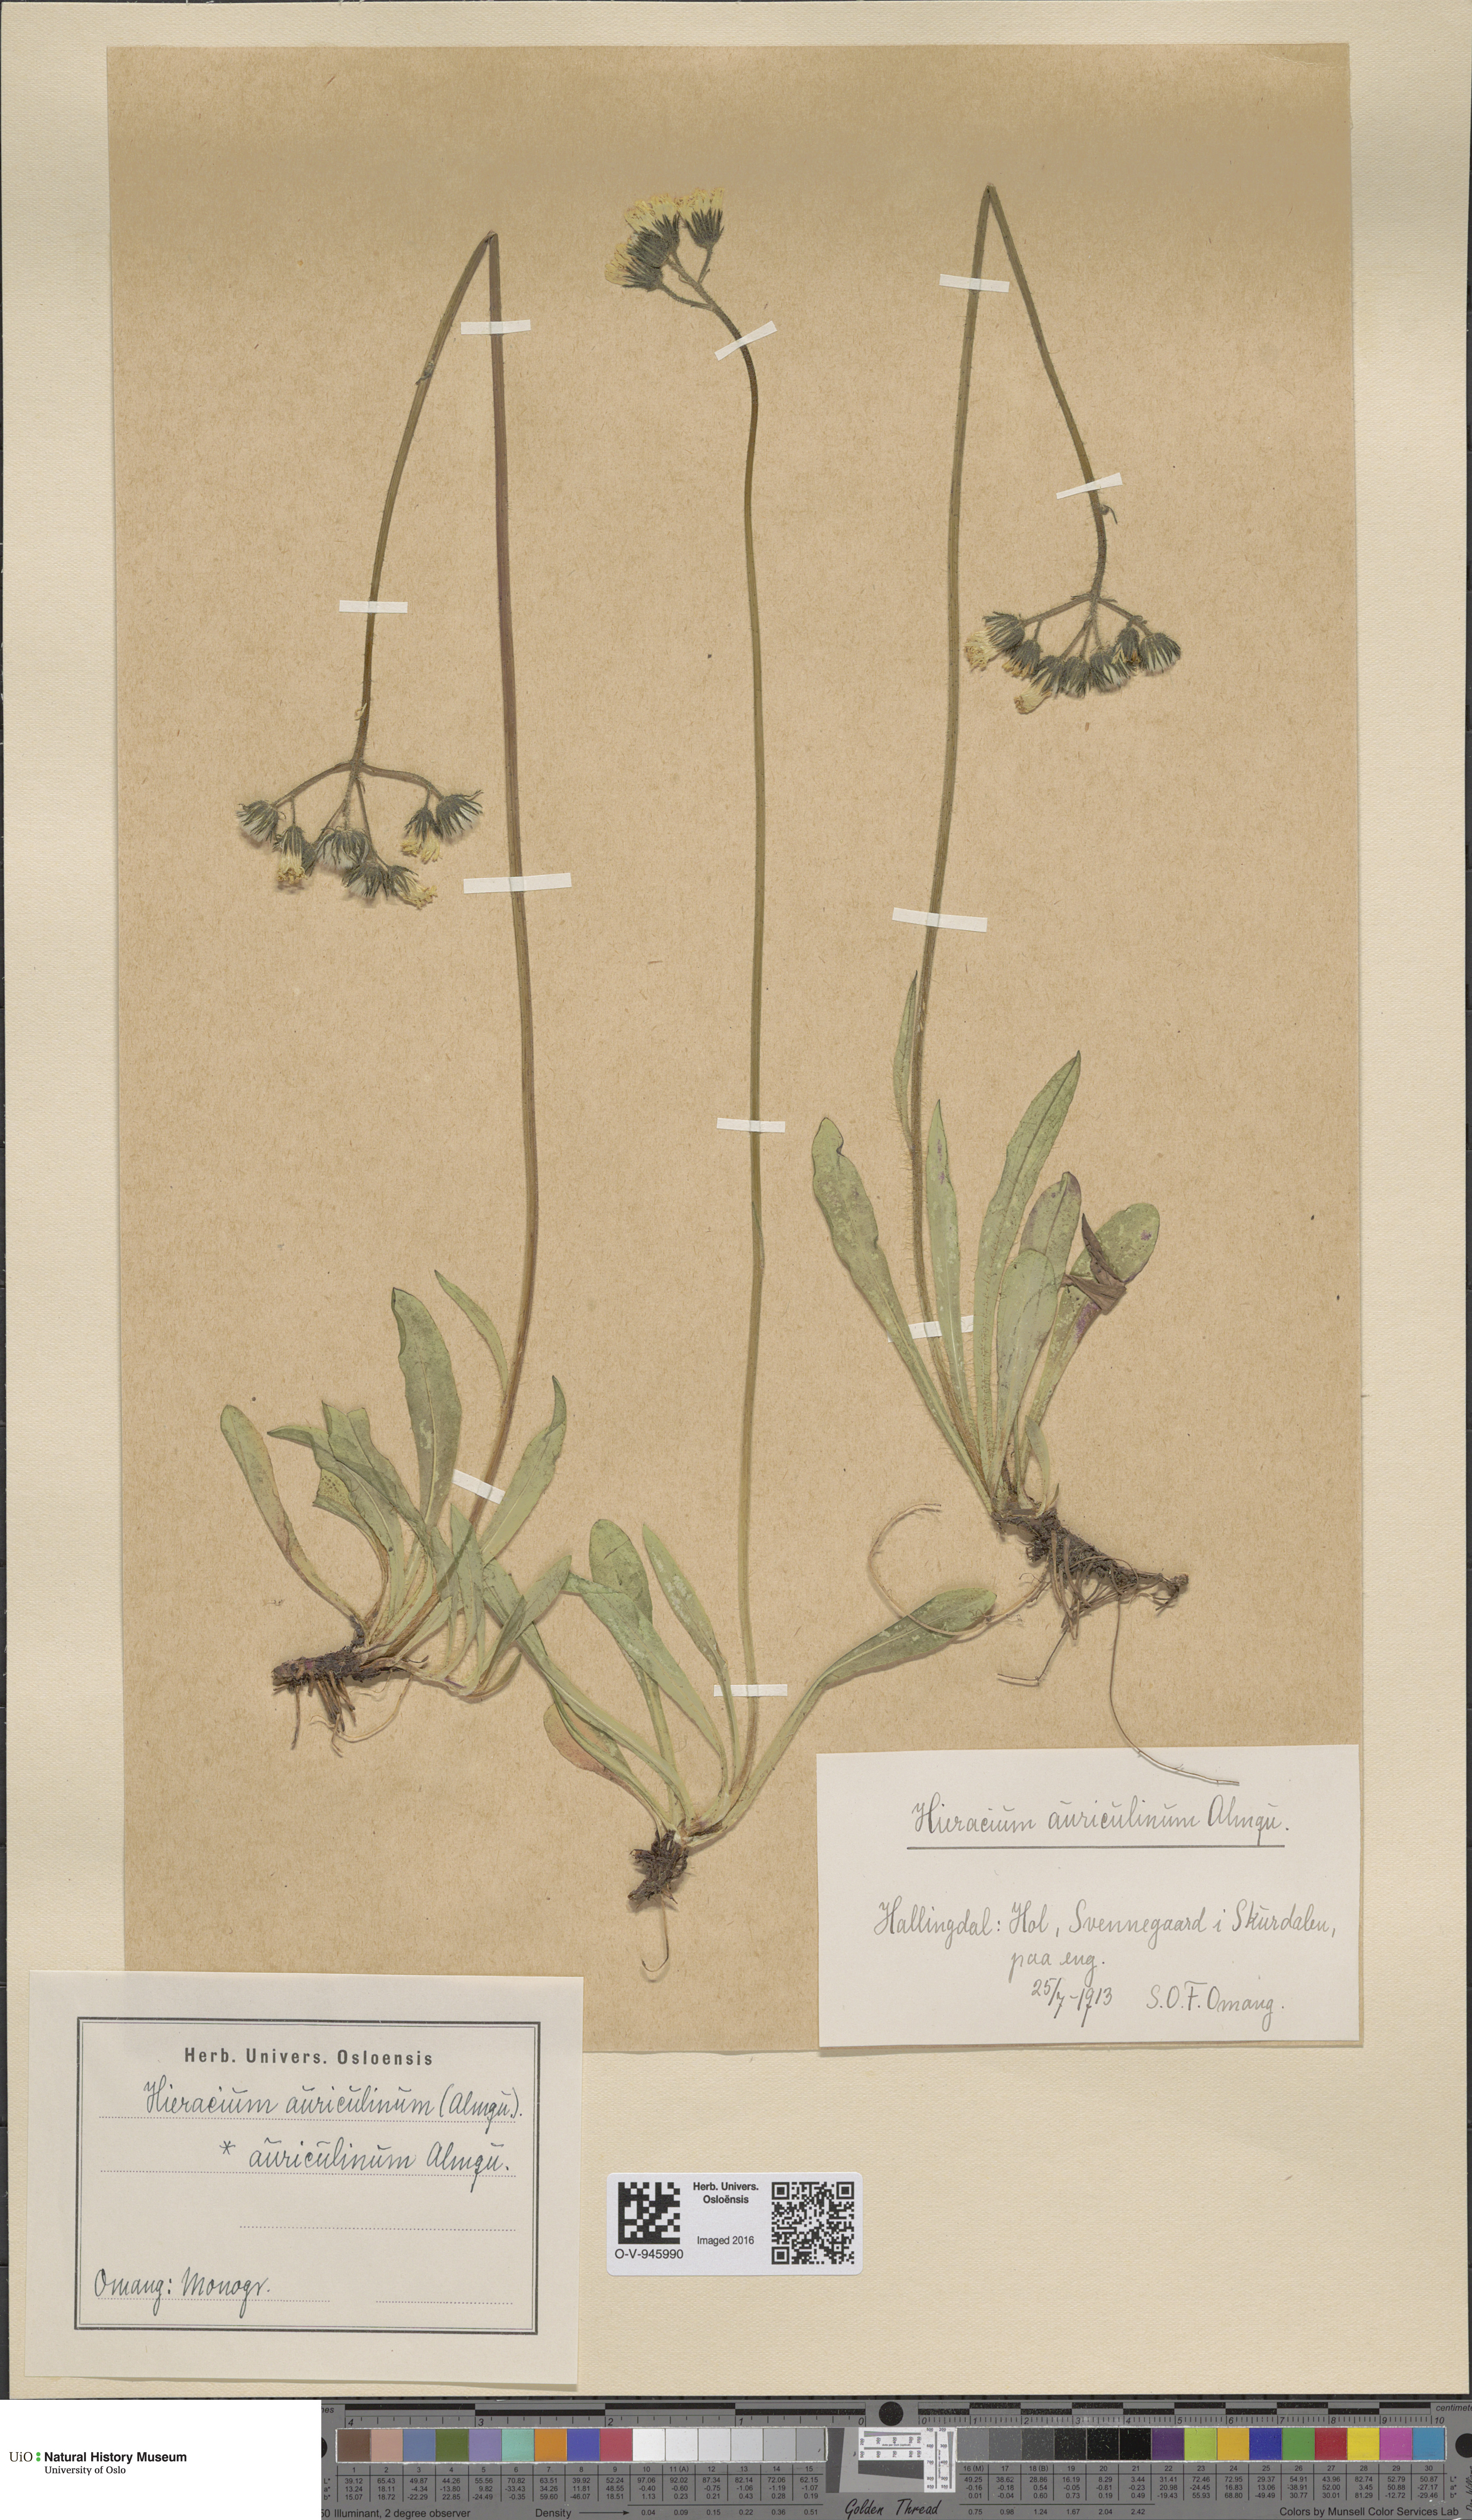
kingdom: Plantae
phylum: Tracheophyta
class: Magnoliopsida
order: Asterales
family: Asteraceae
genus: Pilosella
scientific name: Pilosella dubia
